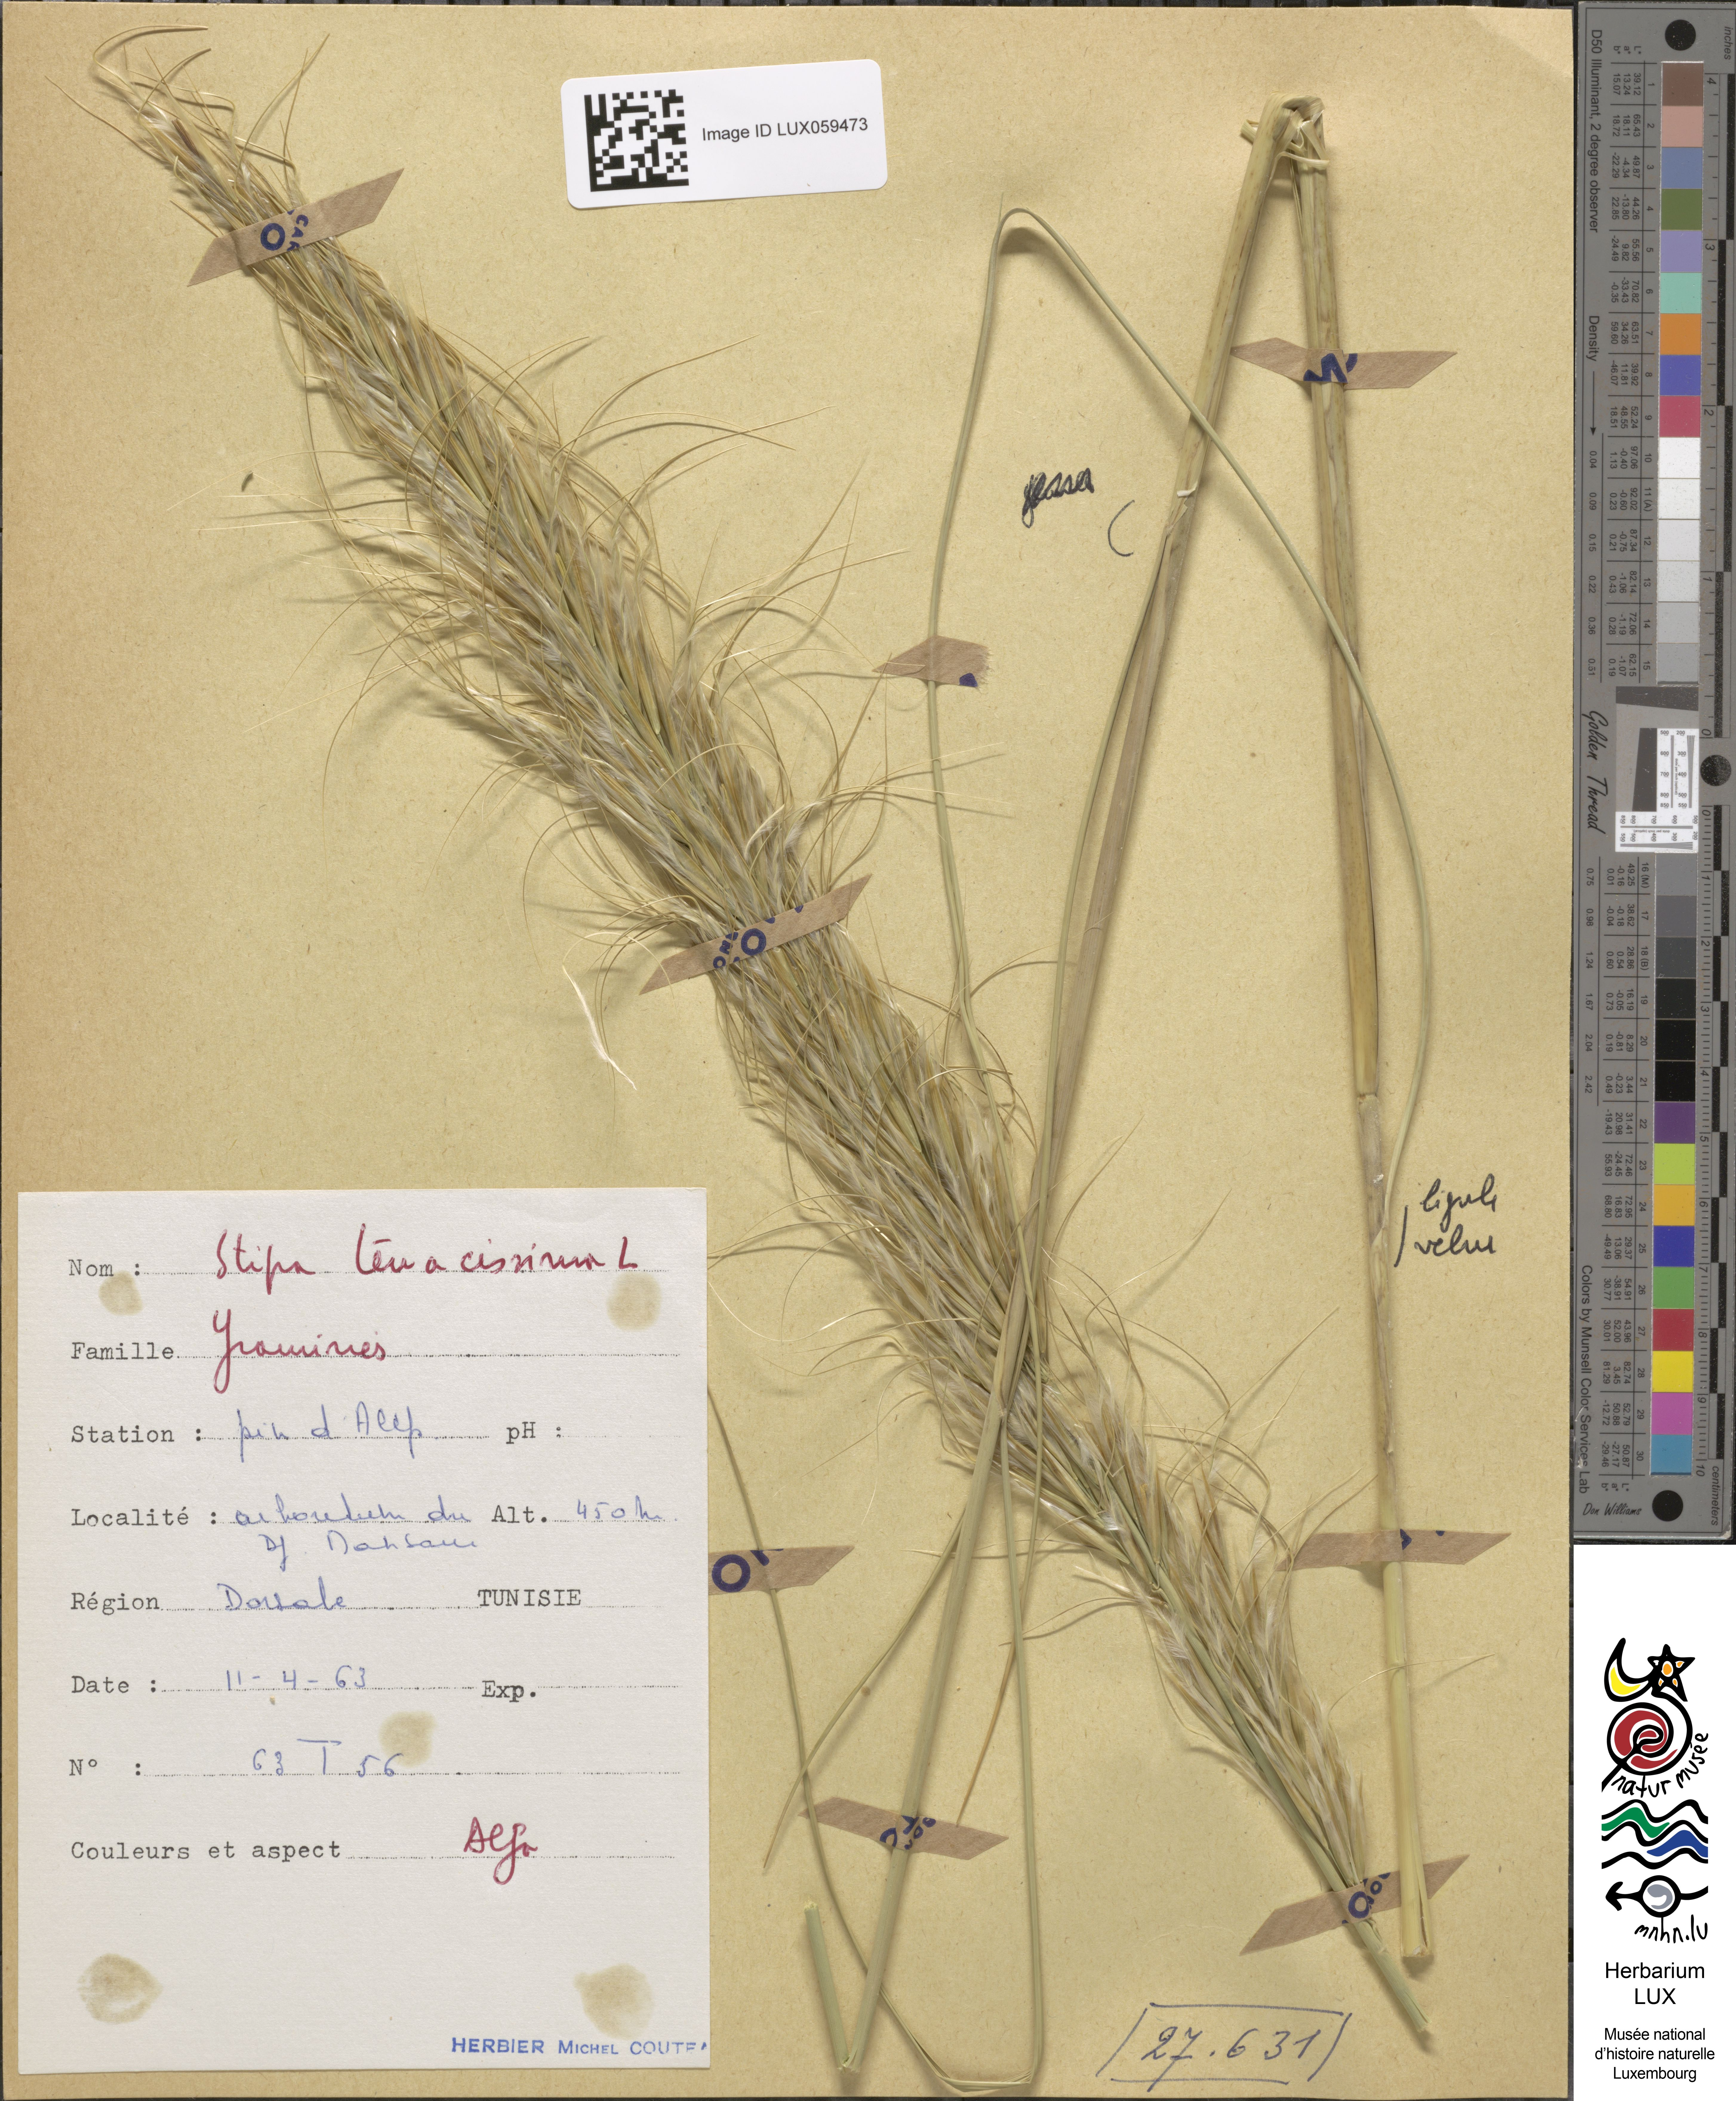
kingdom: Plantae
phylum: Tracheophyta
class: Liliopsida
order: Poales
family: Poaceae
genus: Macrochloa
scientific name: Macrochloa tenacissima
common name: Alfa grass
